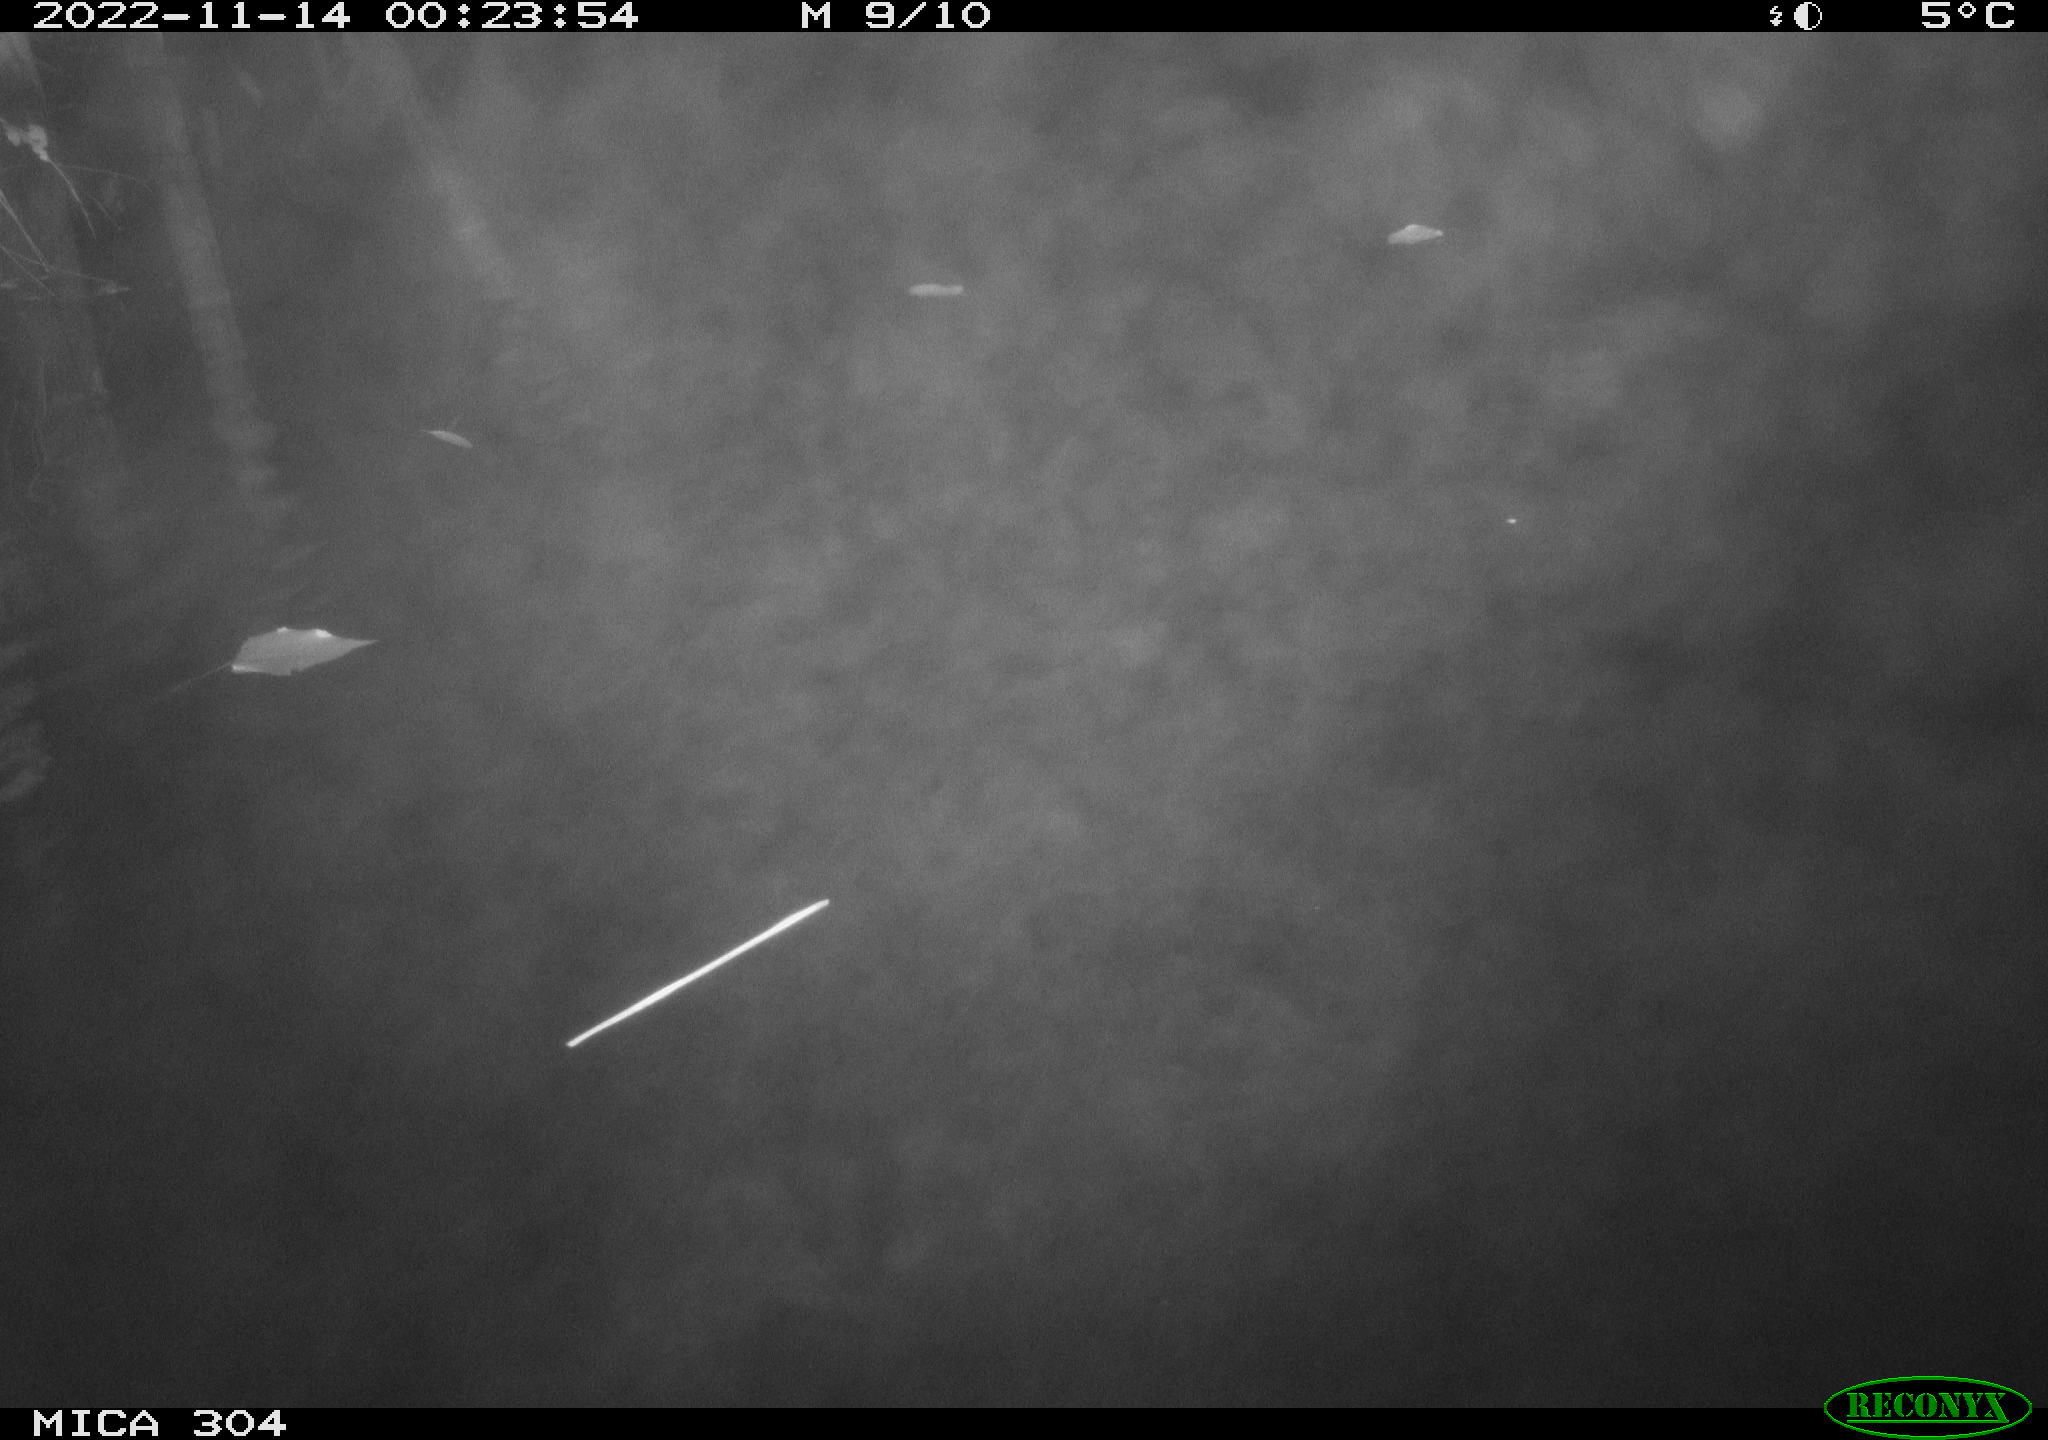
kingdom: Animalia
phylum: Chordata
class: Mammalia
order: Rodentia
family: Cricetidae
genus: Ondatra
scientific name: Ondatra zibethicus
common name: Muskrat
